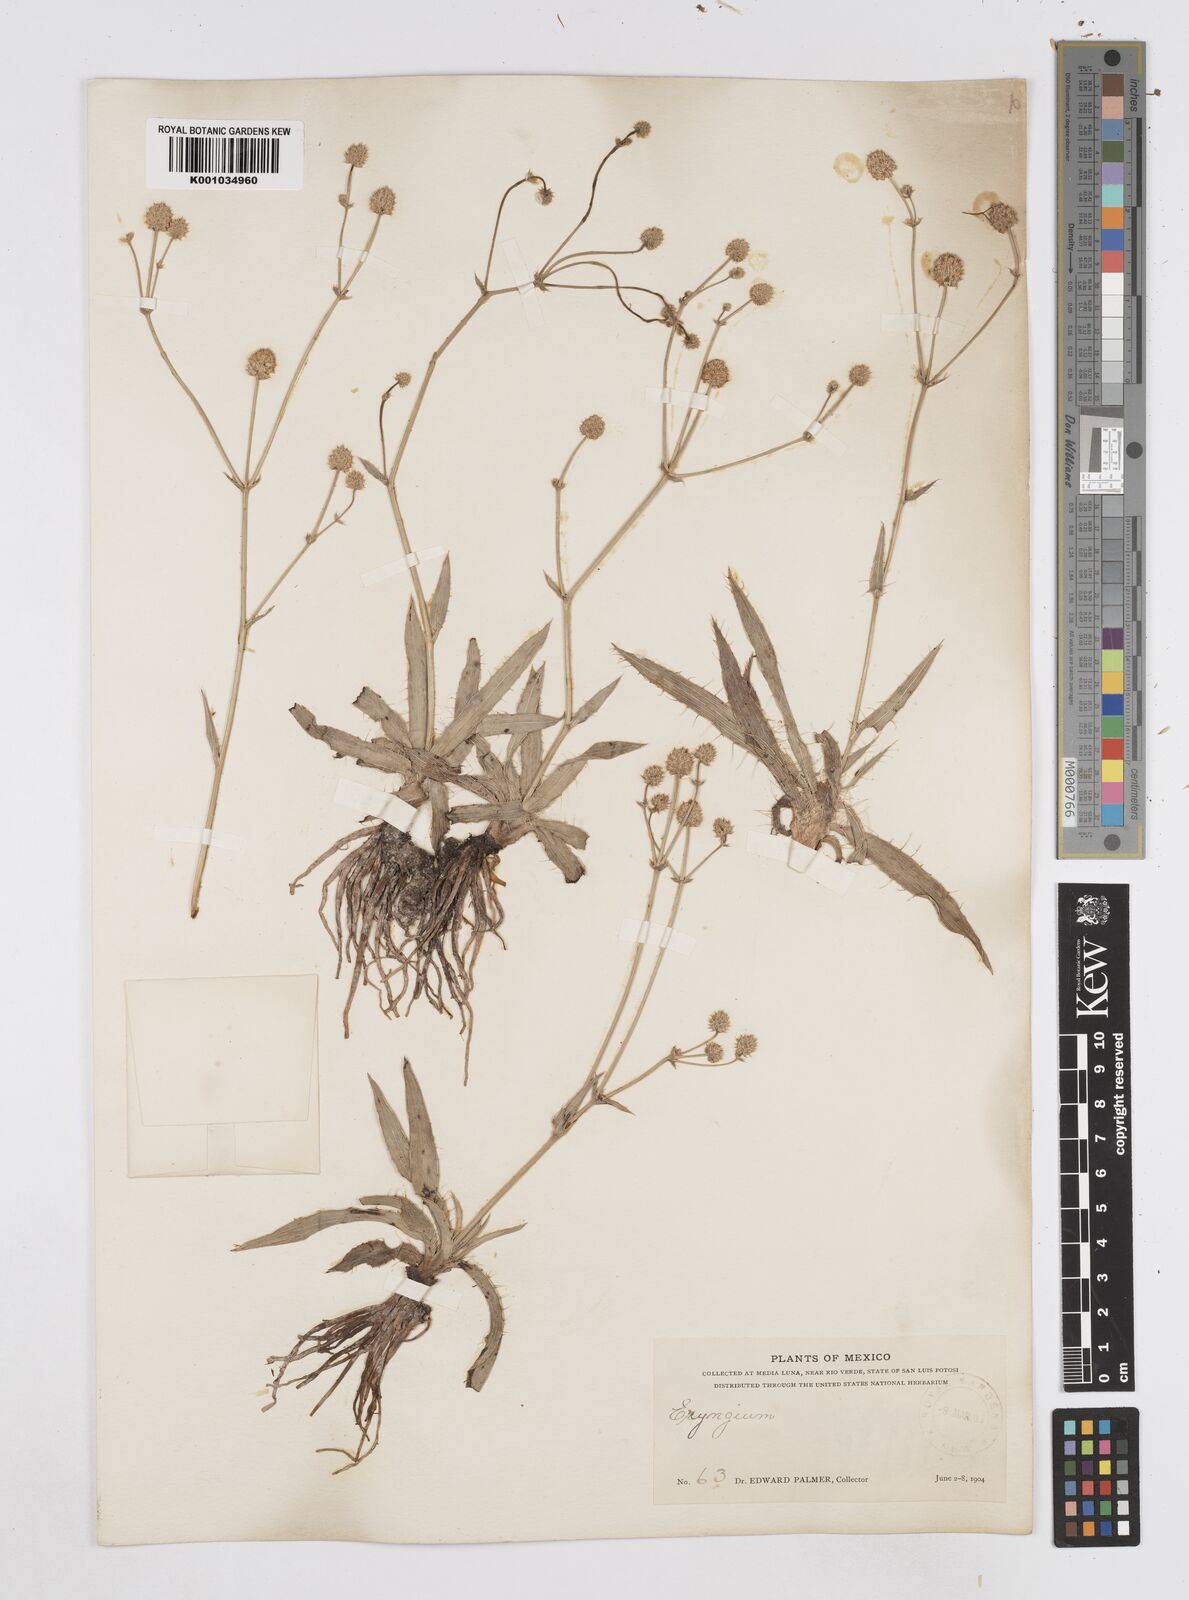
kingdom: Plantae
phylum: Tracheophyta
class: Magnoliopsida
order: Apiales
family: Apiaceae
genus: Eryngium
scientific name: Eryngium gramineum
